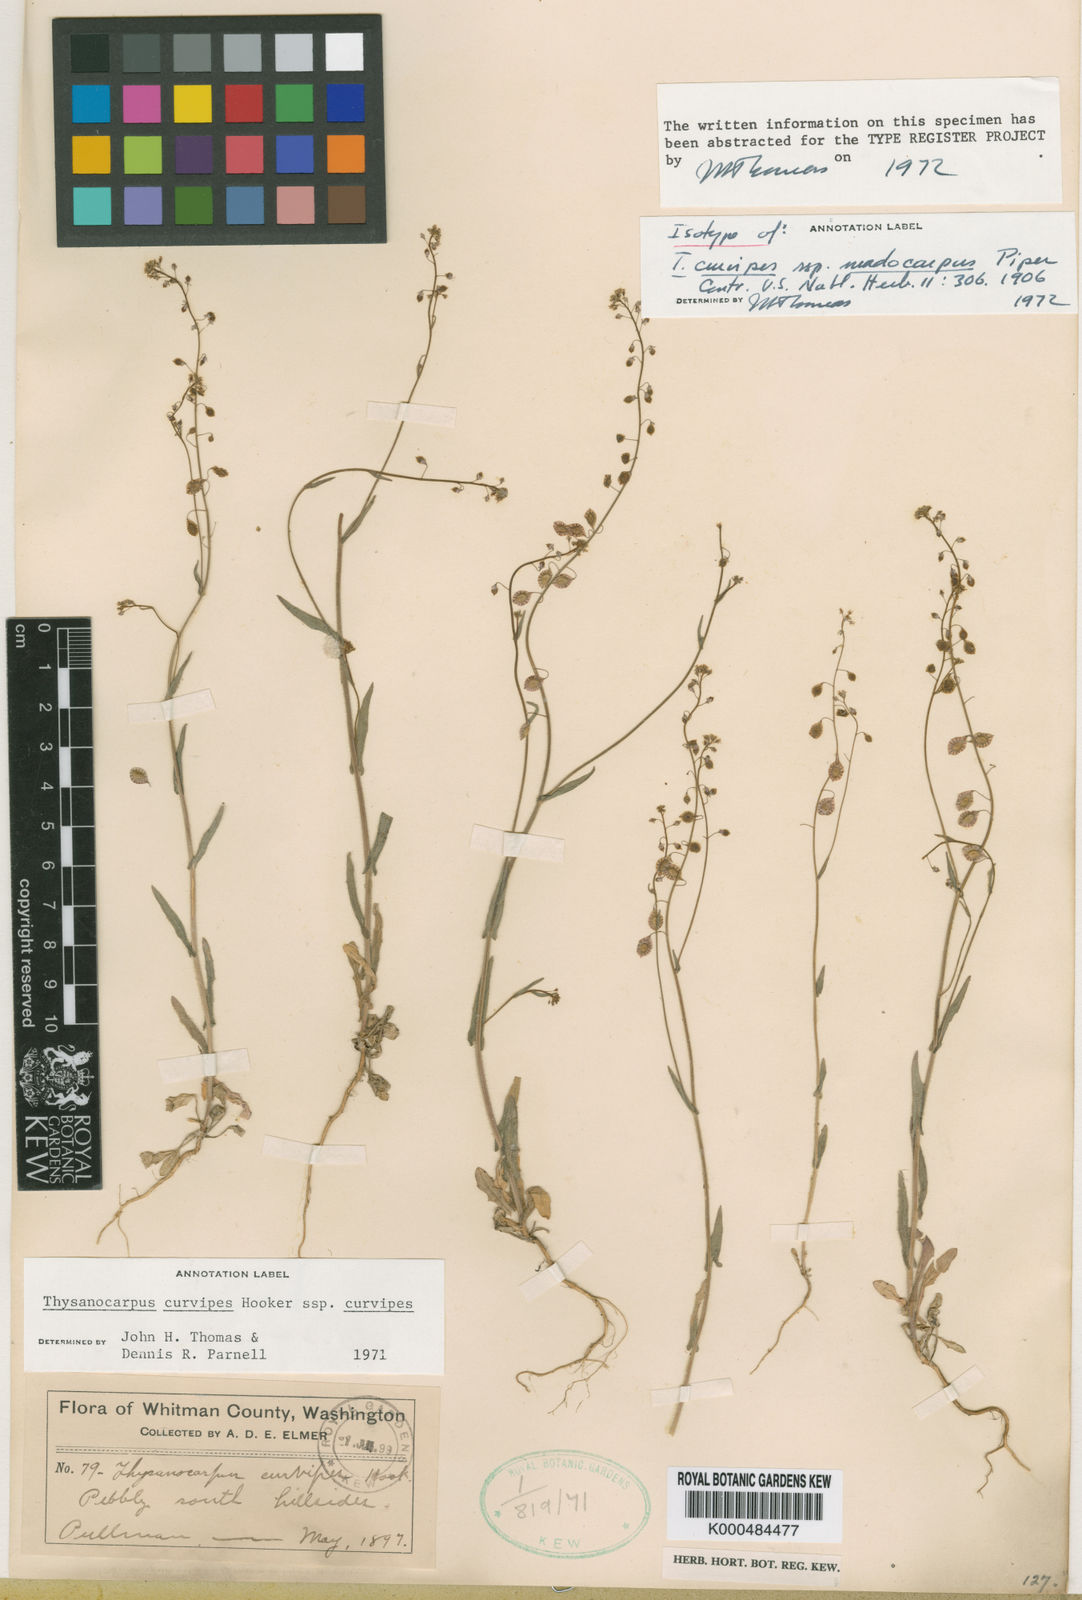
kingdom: Plantae
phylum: Tracheophyta
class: Magnoliopsida
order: Brassicales
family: Brassicaceae
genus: Thysanocarpus
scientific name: Thysanocarpus curvipes
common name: Sand fringepod
